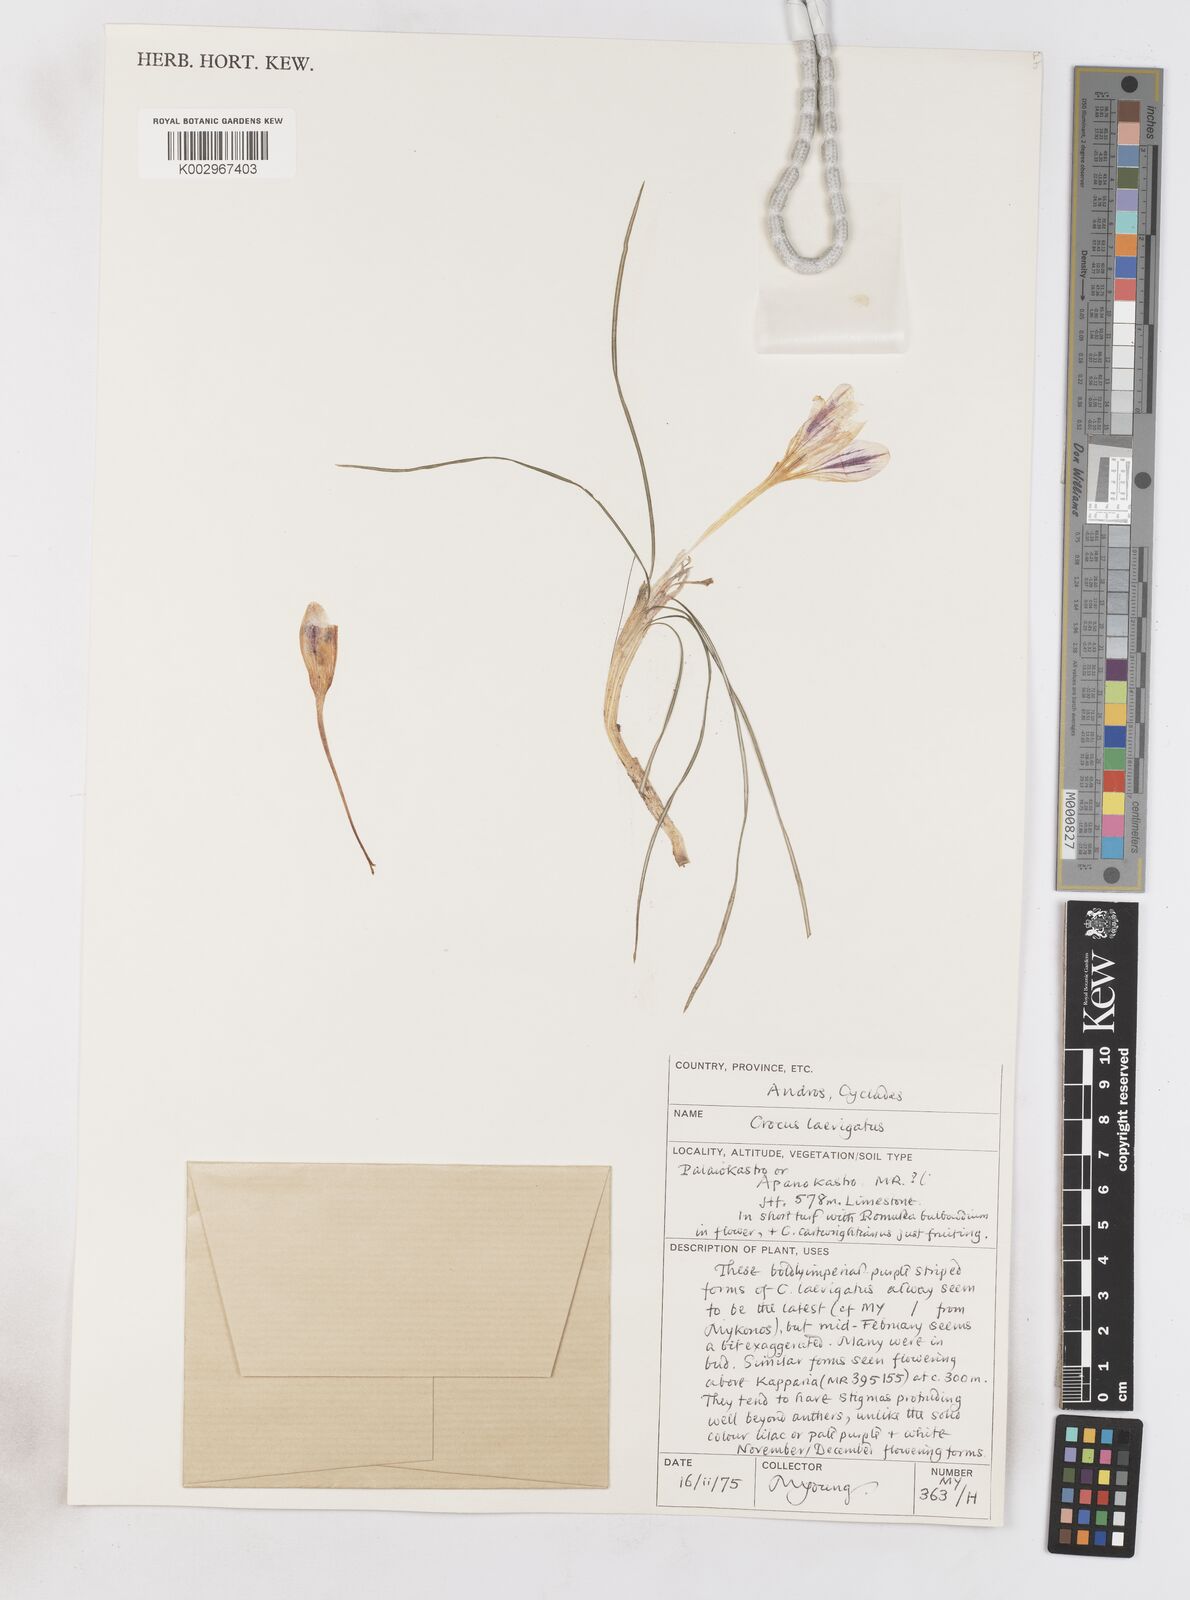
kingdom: Plantae
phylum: Tracheophyta
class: Liliopsida
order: Asparagales
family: Iridaceae
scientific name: Iridaceae
